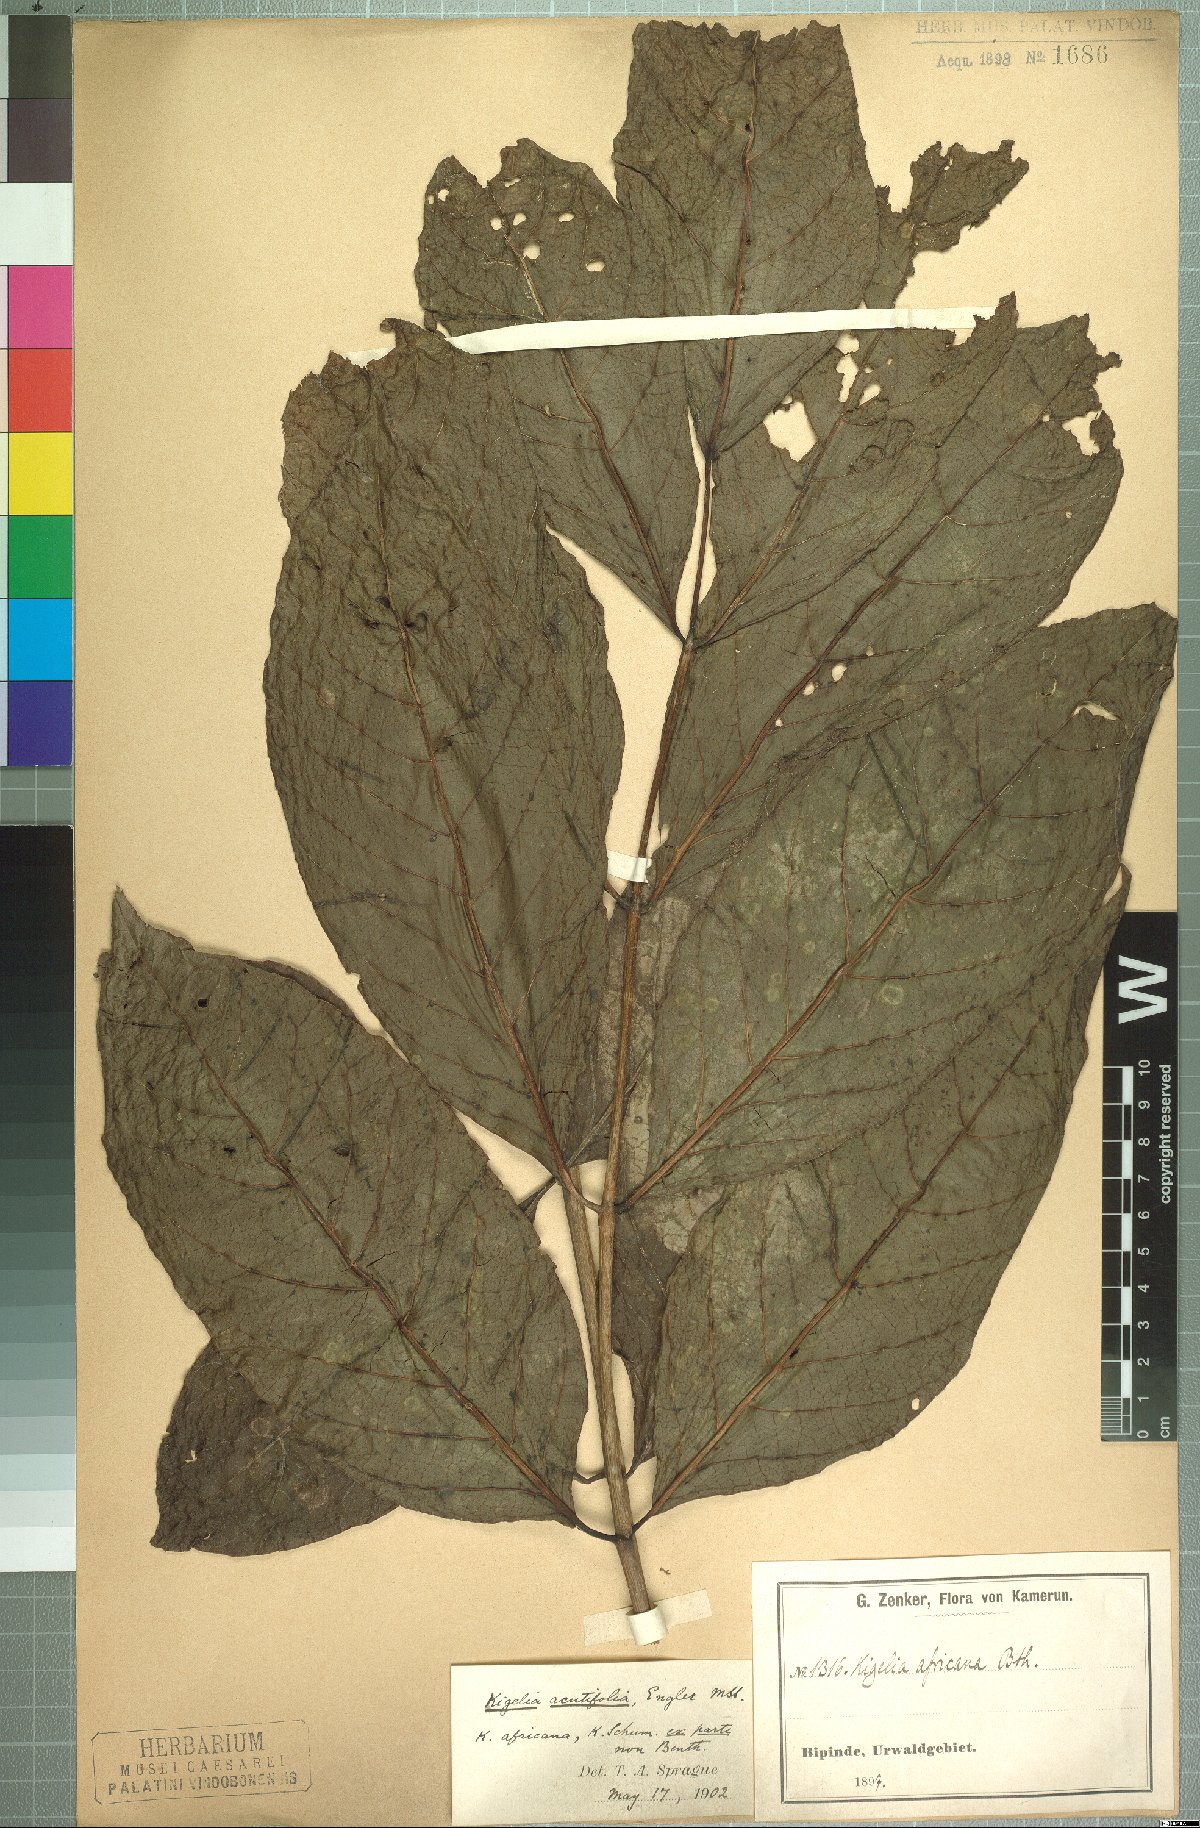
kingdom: Plantae
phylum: Tracheophyta
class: Magnoliopsida
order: Lamiales
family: Bignoniaceae
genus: Kigelia
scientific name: Kigelia africana
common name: Sausage tree
